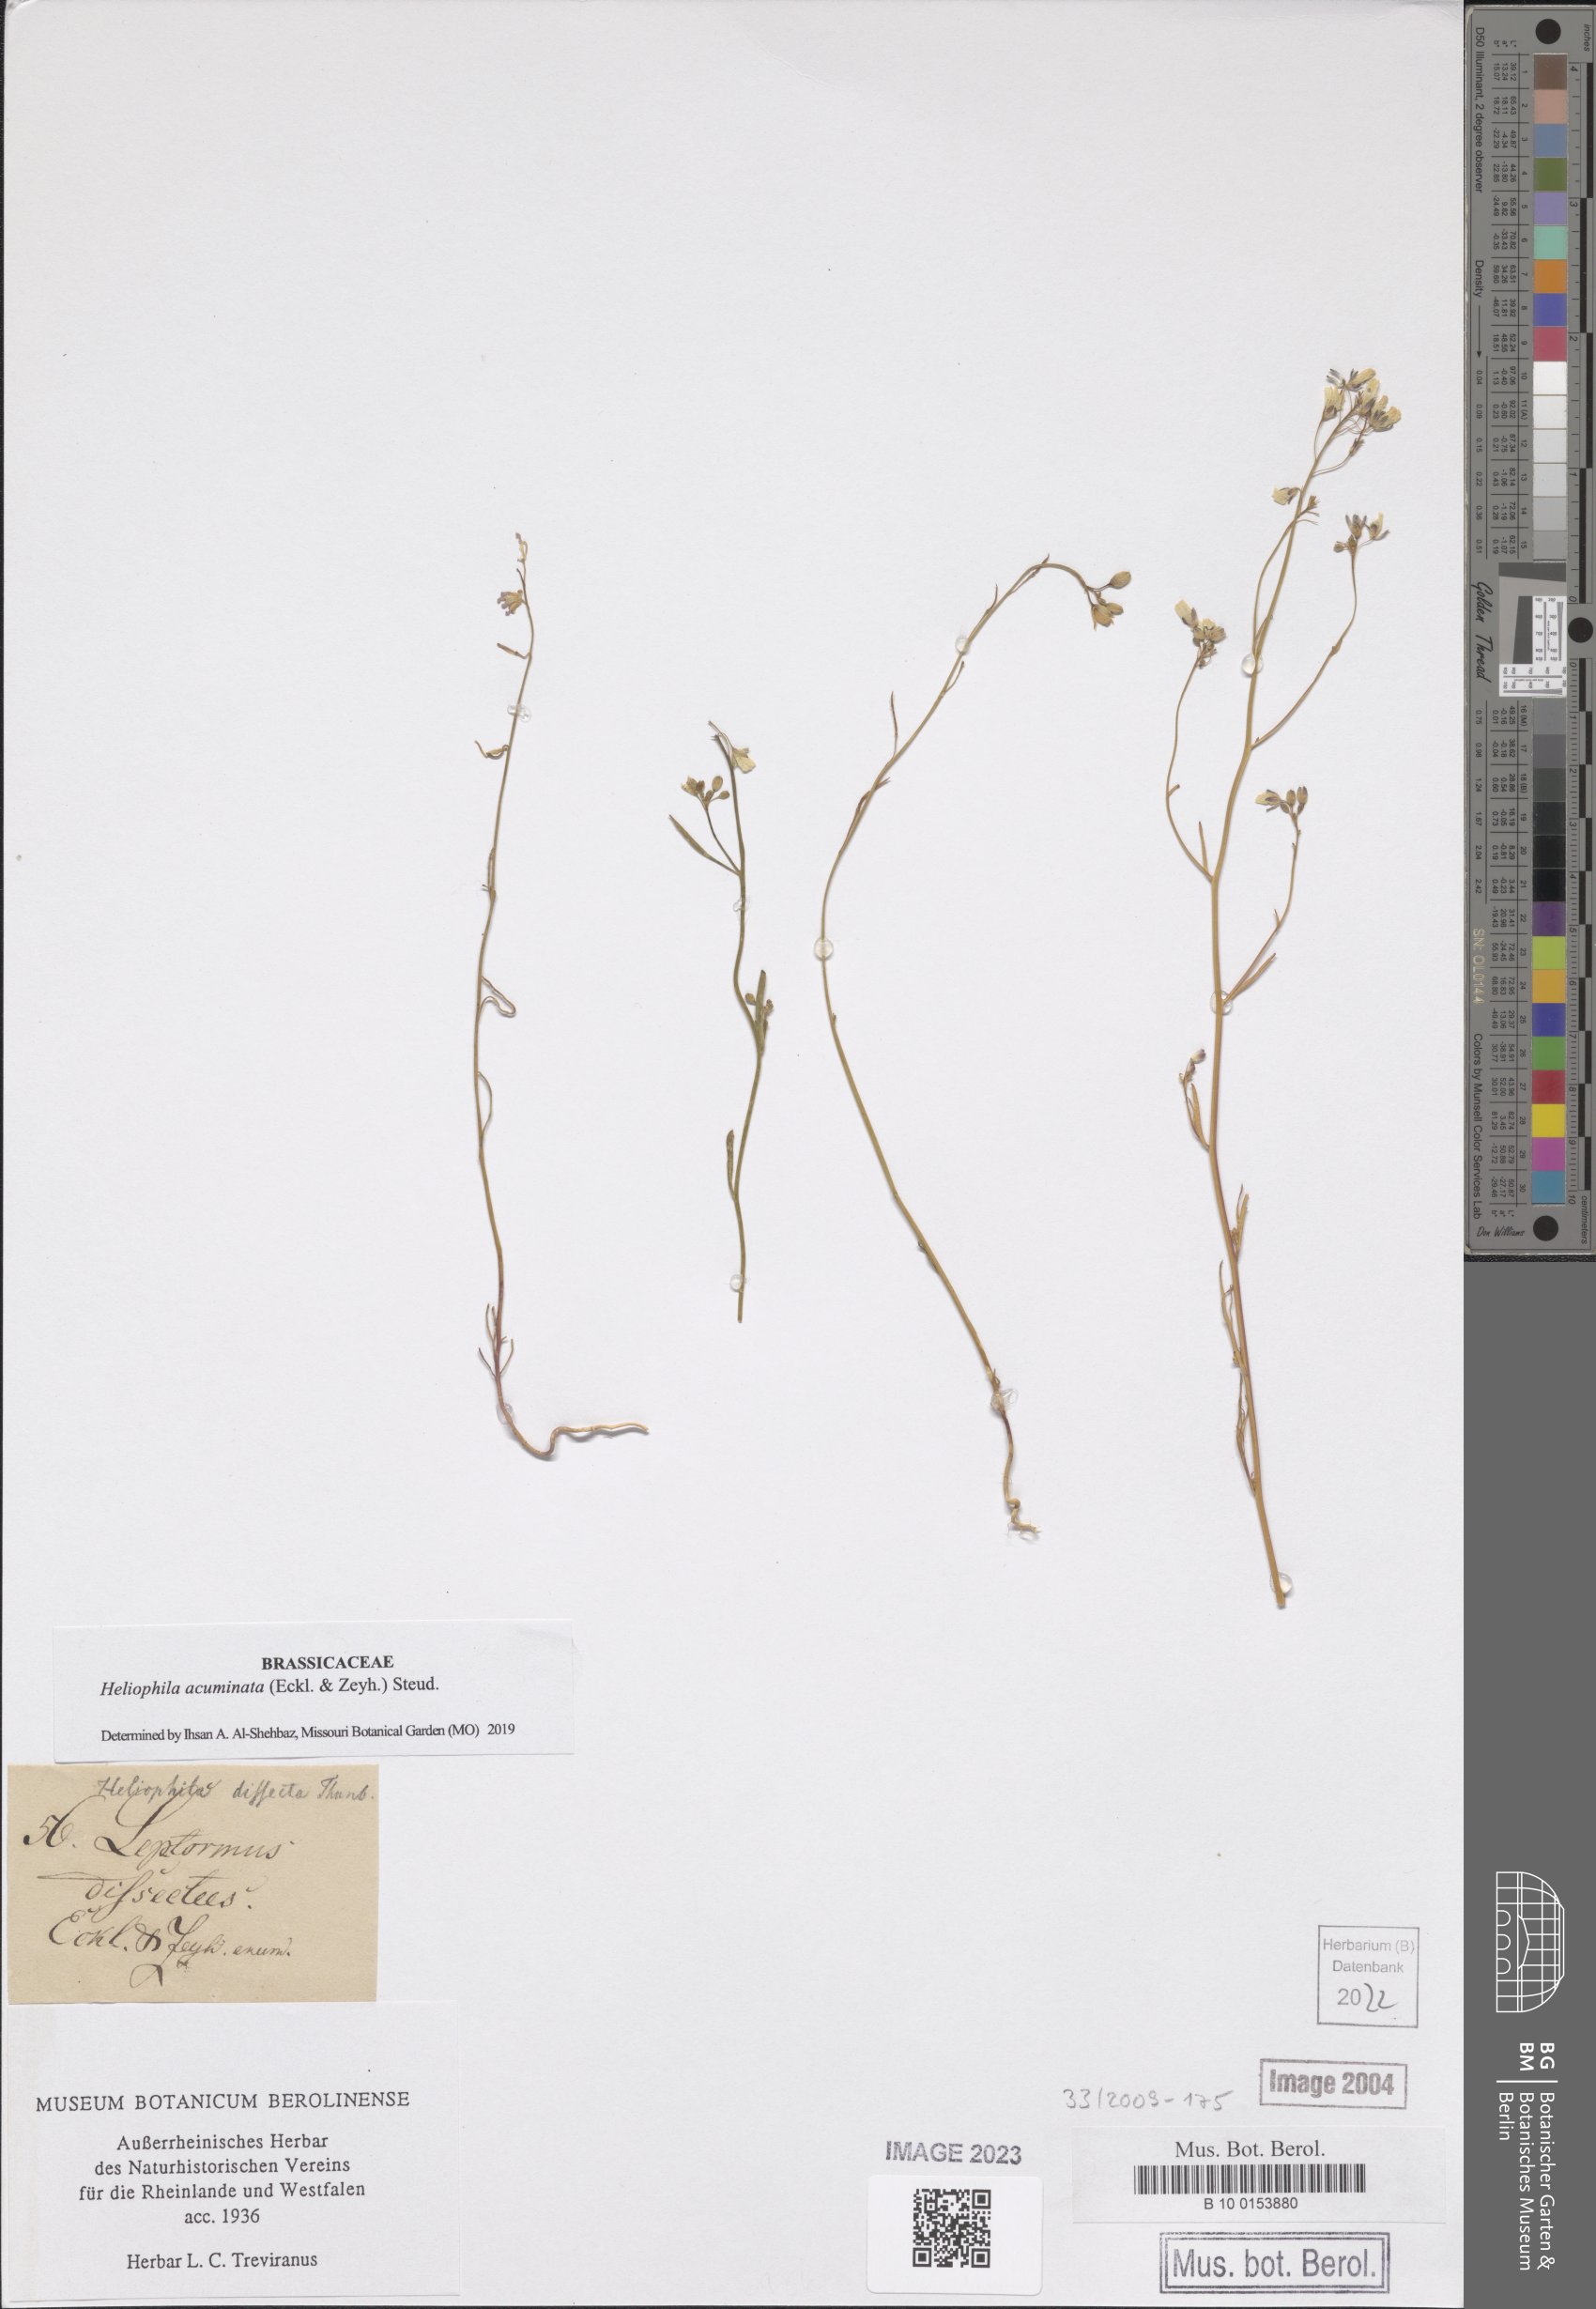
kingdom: Plantae
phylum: Tracheophyta
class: Magnoliopsida
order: Brassicales
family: Brassicaceae
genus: Heliophila
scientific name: Heliophila acuminata
